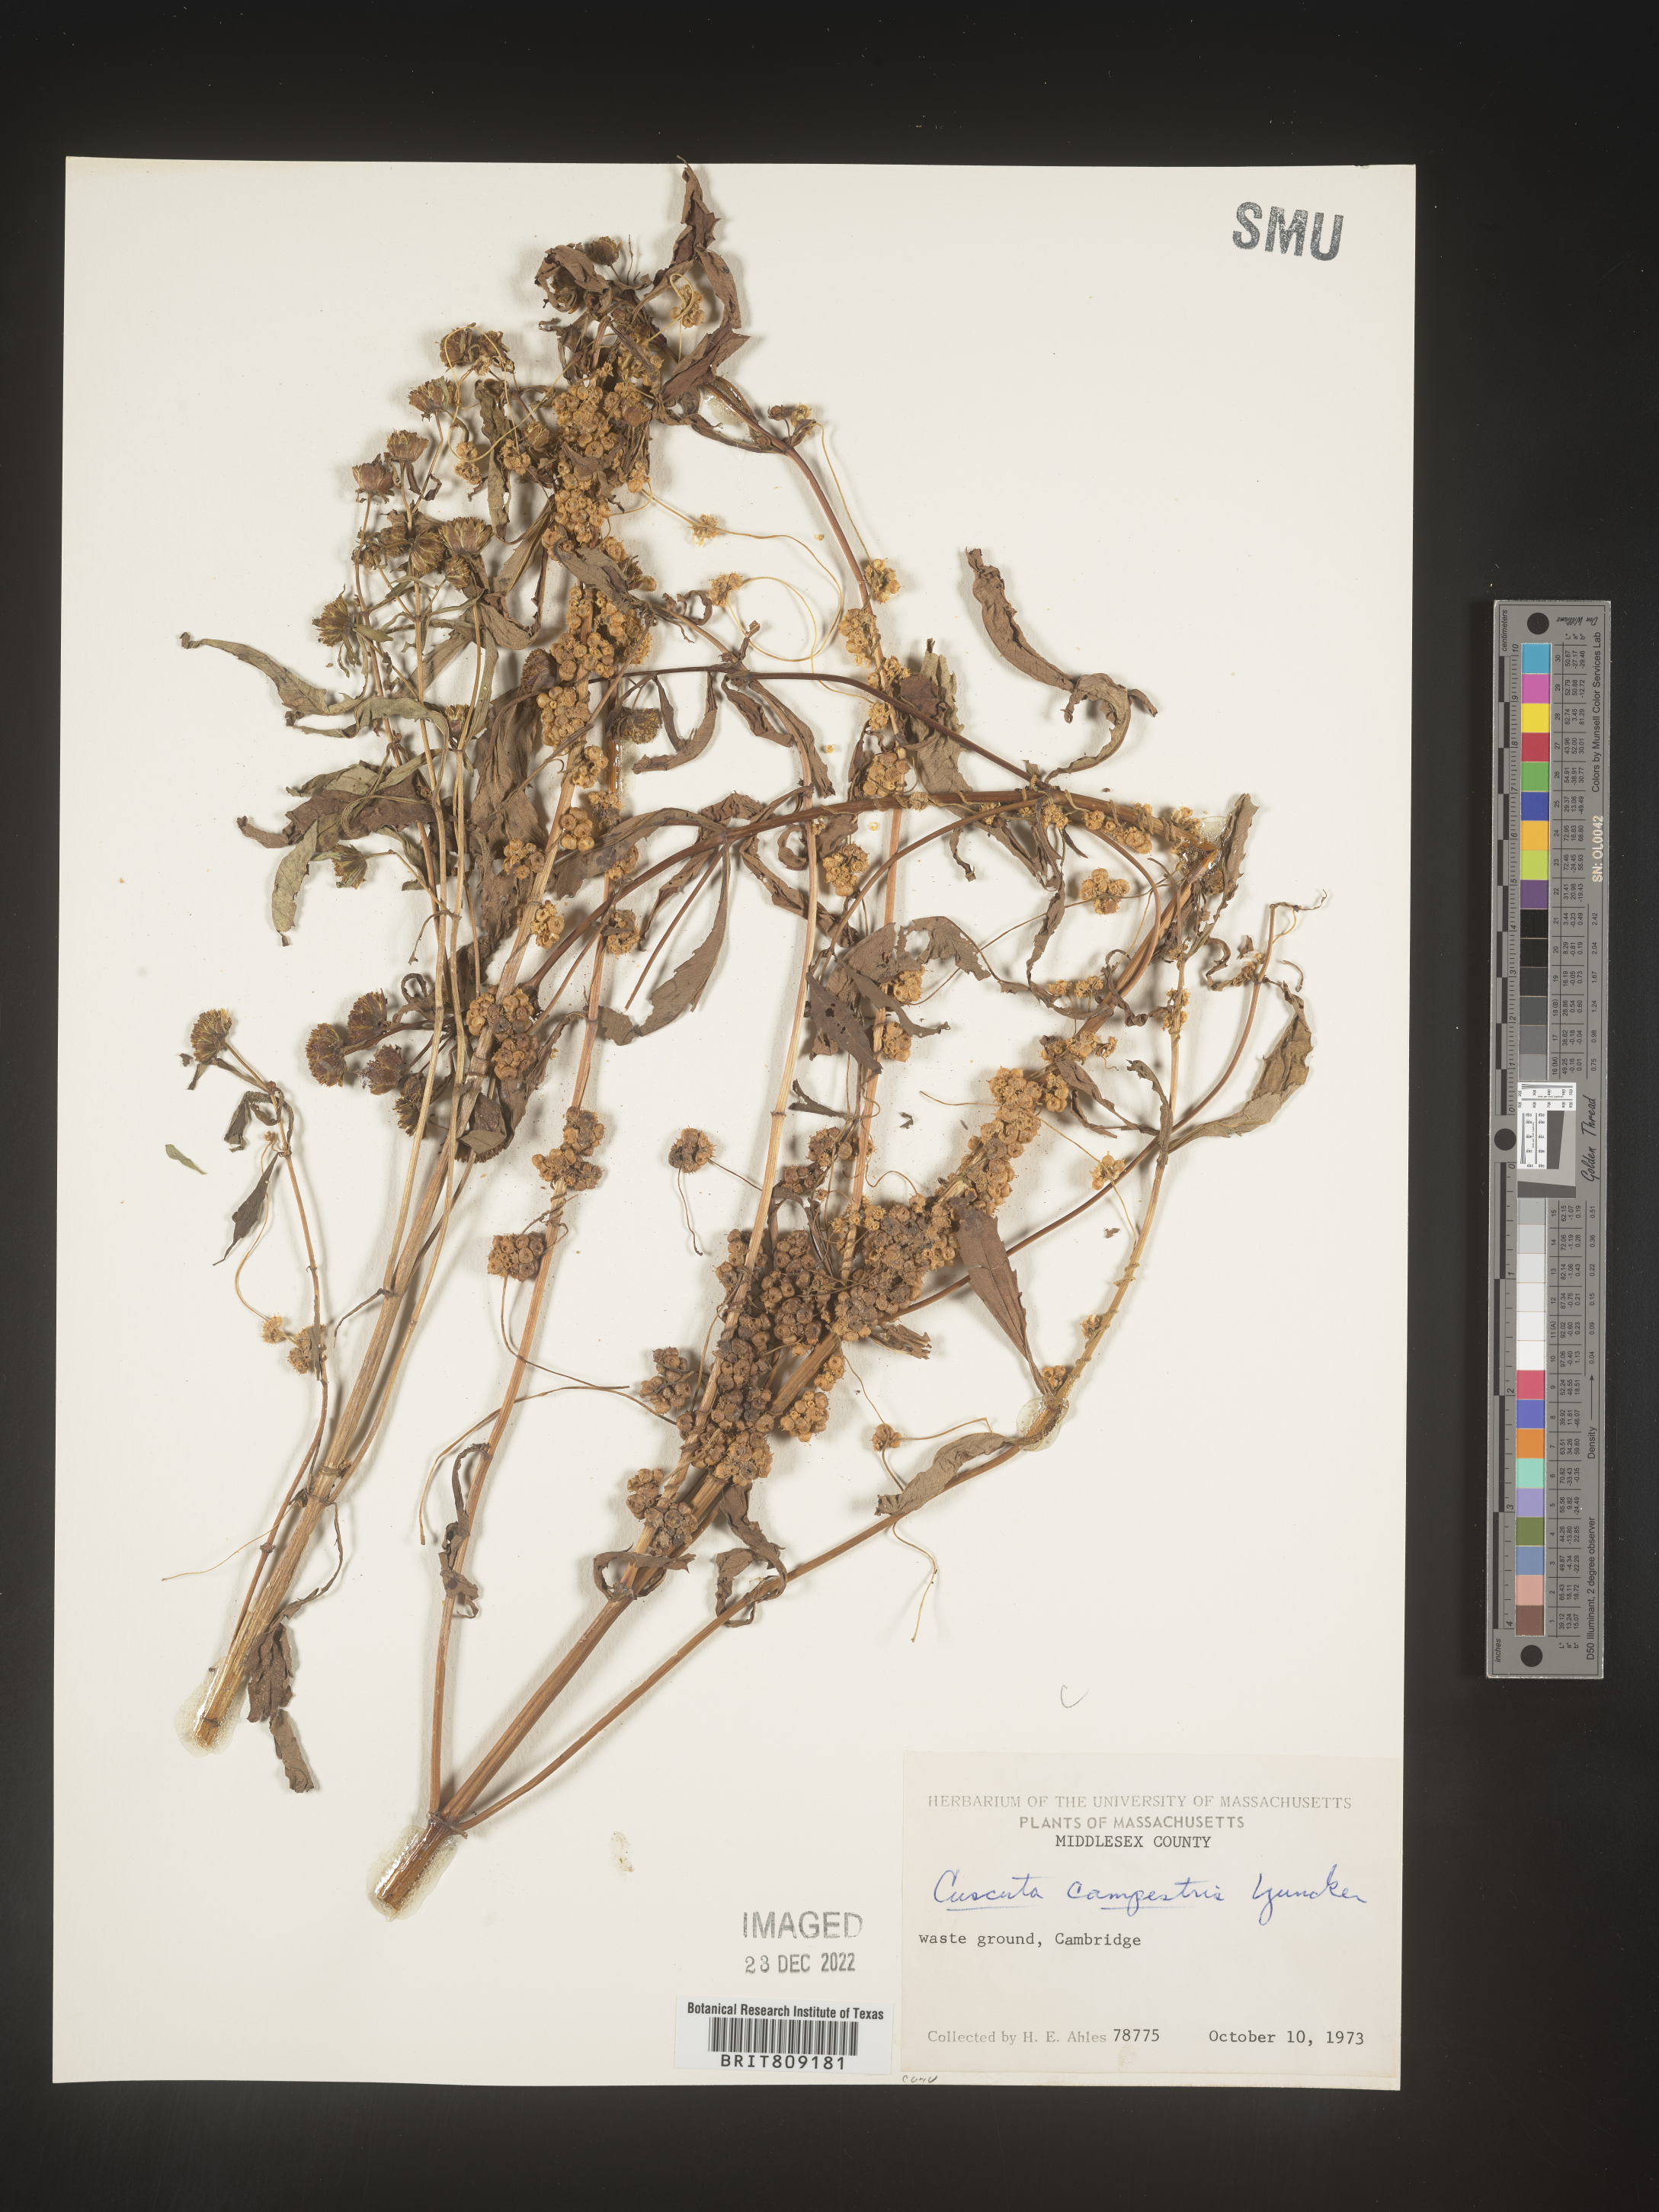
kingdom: Plantae
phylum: Tracheophyta
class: Magnoliopsida
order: Solanales
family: Convolvulaceae
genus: Cuscuta
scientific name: Cuscuta campestris
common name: Yellow dodder
